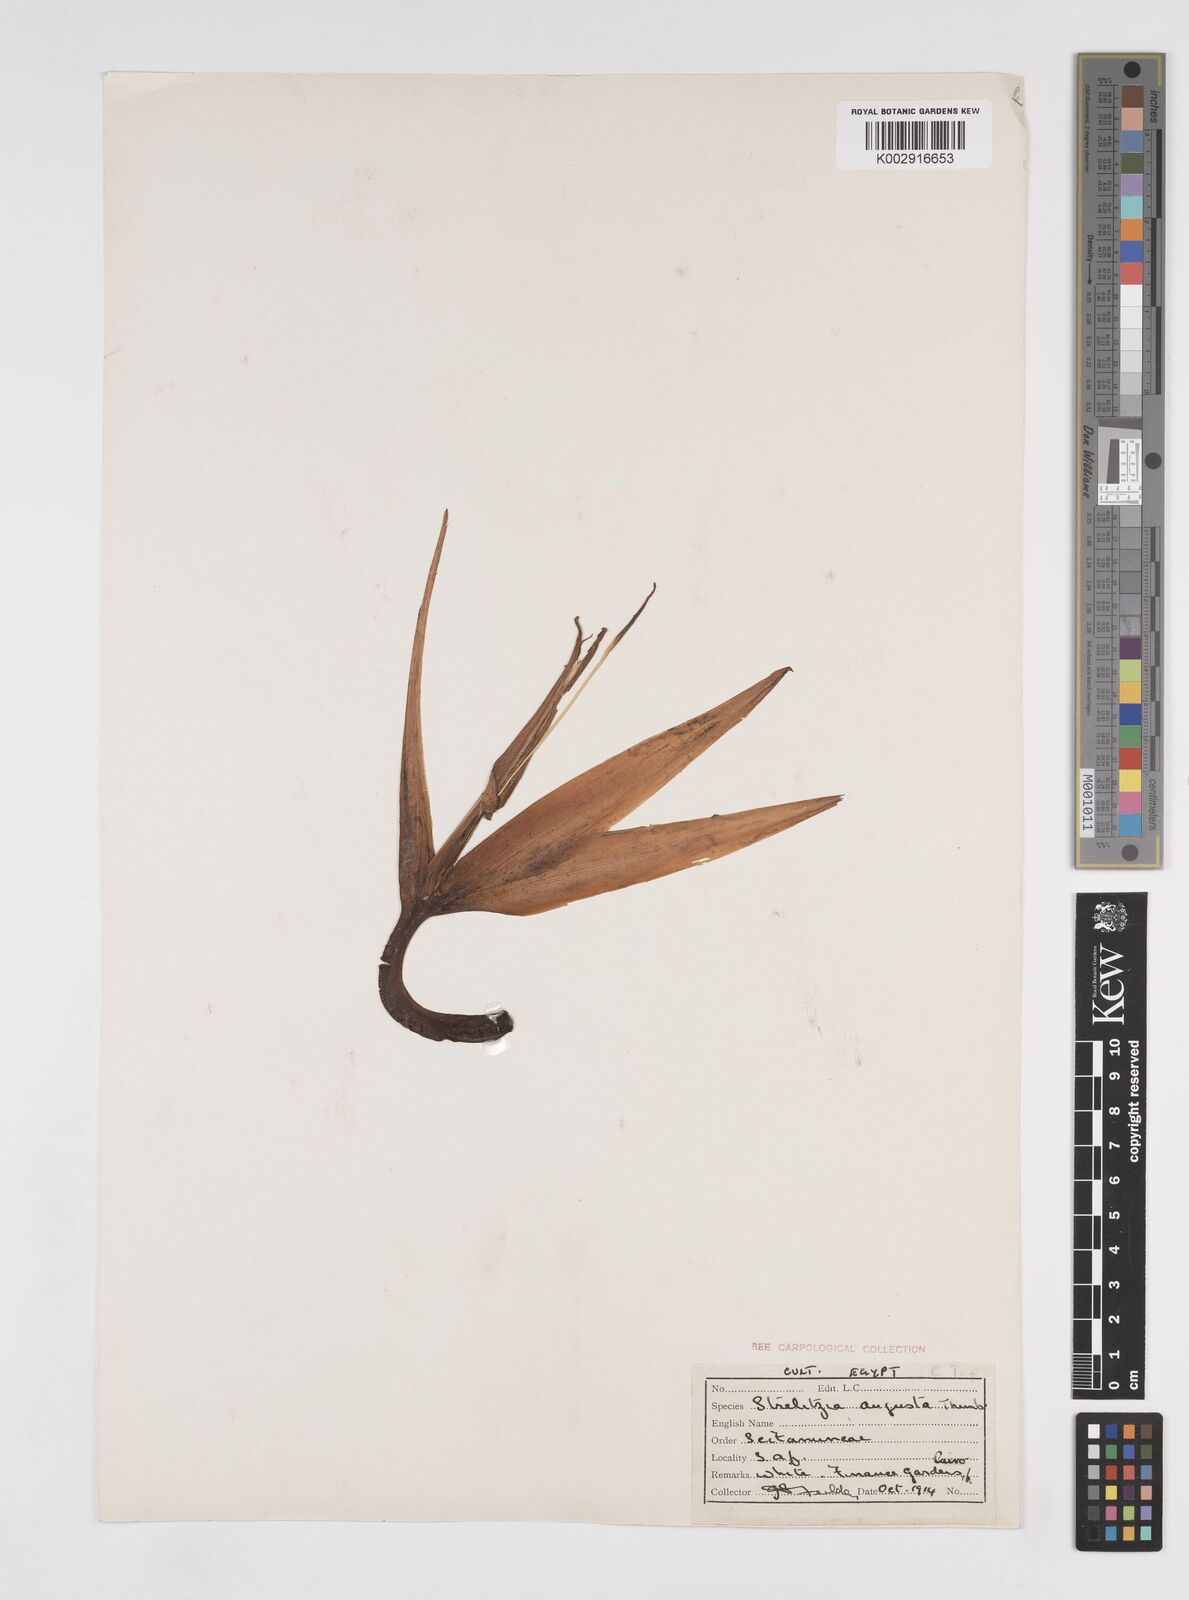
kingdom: Plantae
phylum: Tracheophyta
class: Liliopsida
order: Zingiberales
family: Strelitziaceae
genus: Strelitzia
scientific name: Strelitzia alba
